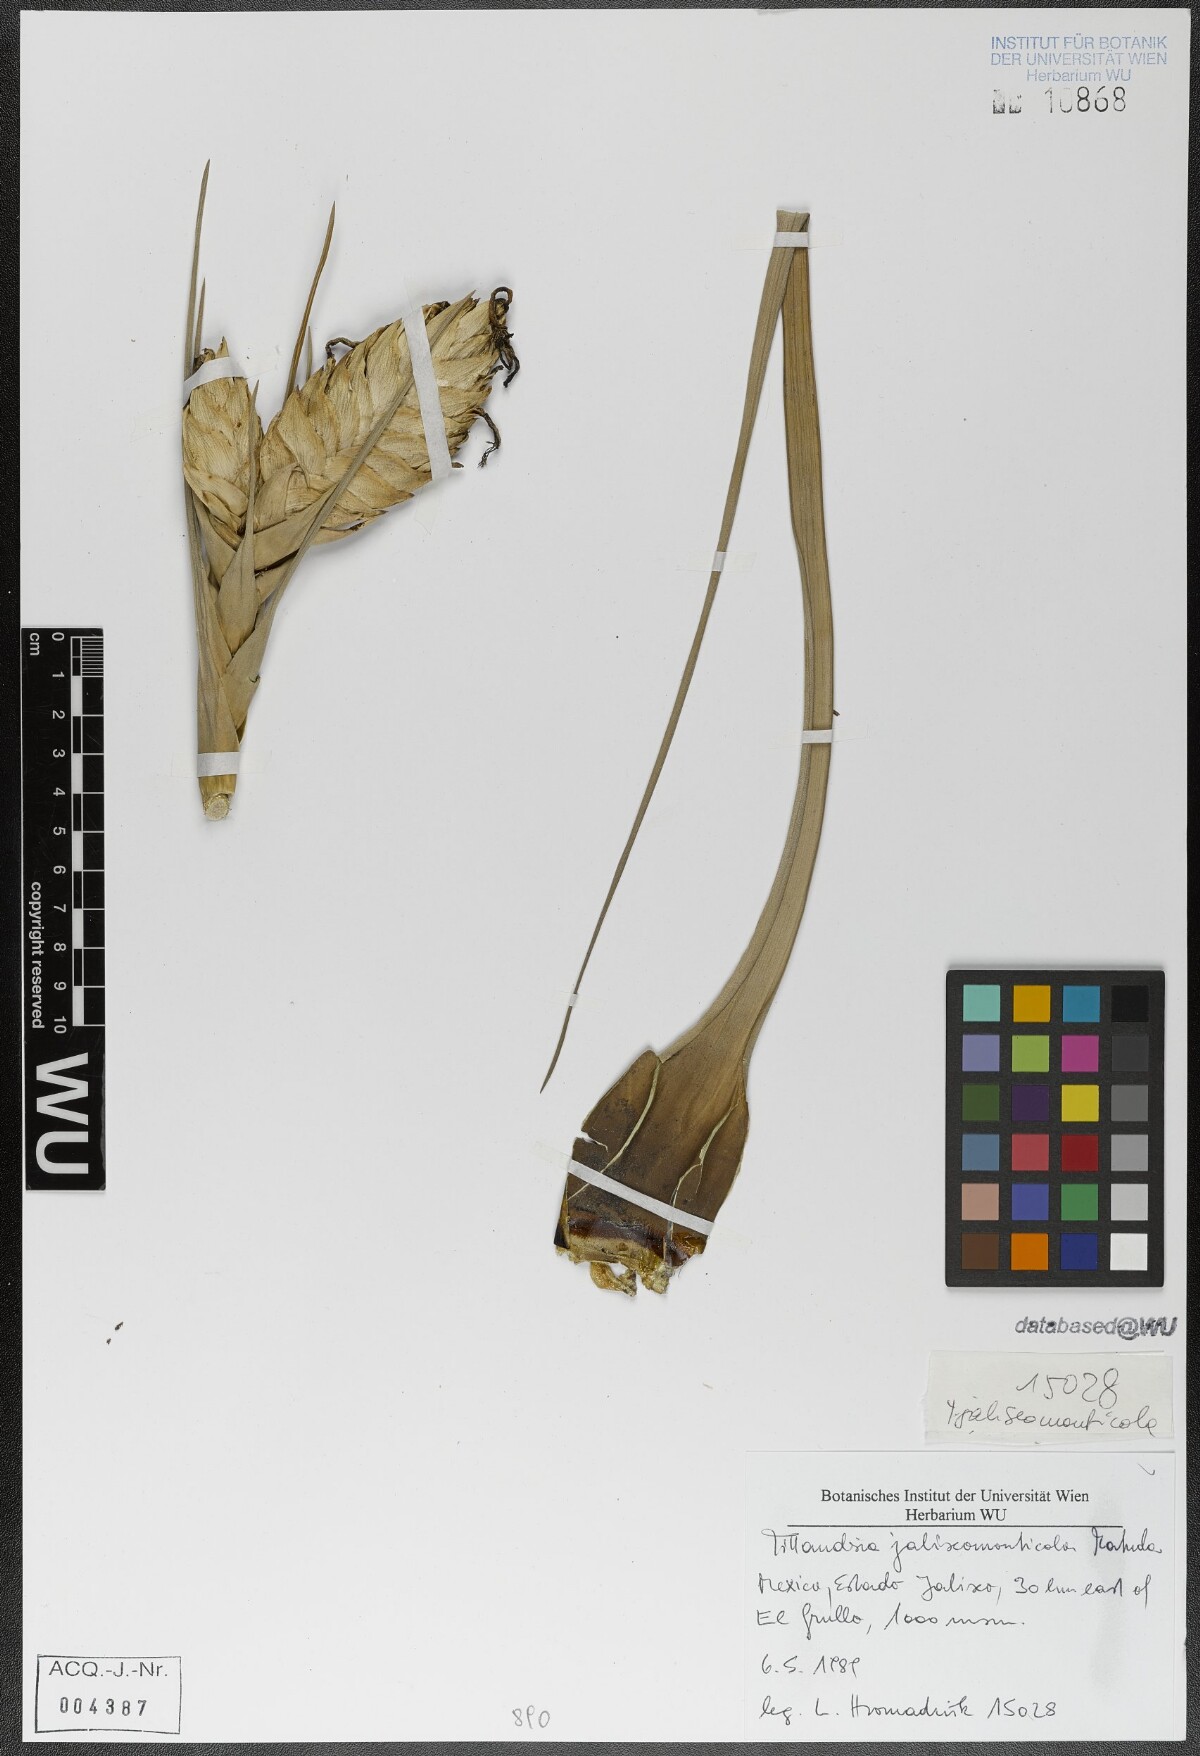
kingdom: Plantae
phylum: Tracheophyta
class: Liliopsida
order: Poales
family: Bromeliaceae
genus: Tillandsia
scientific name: Tillandsia compressa
